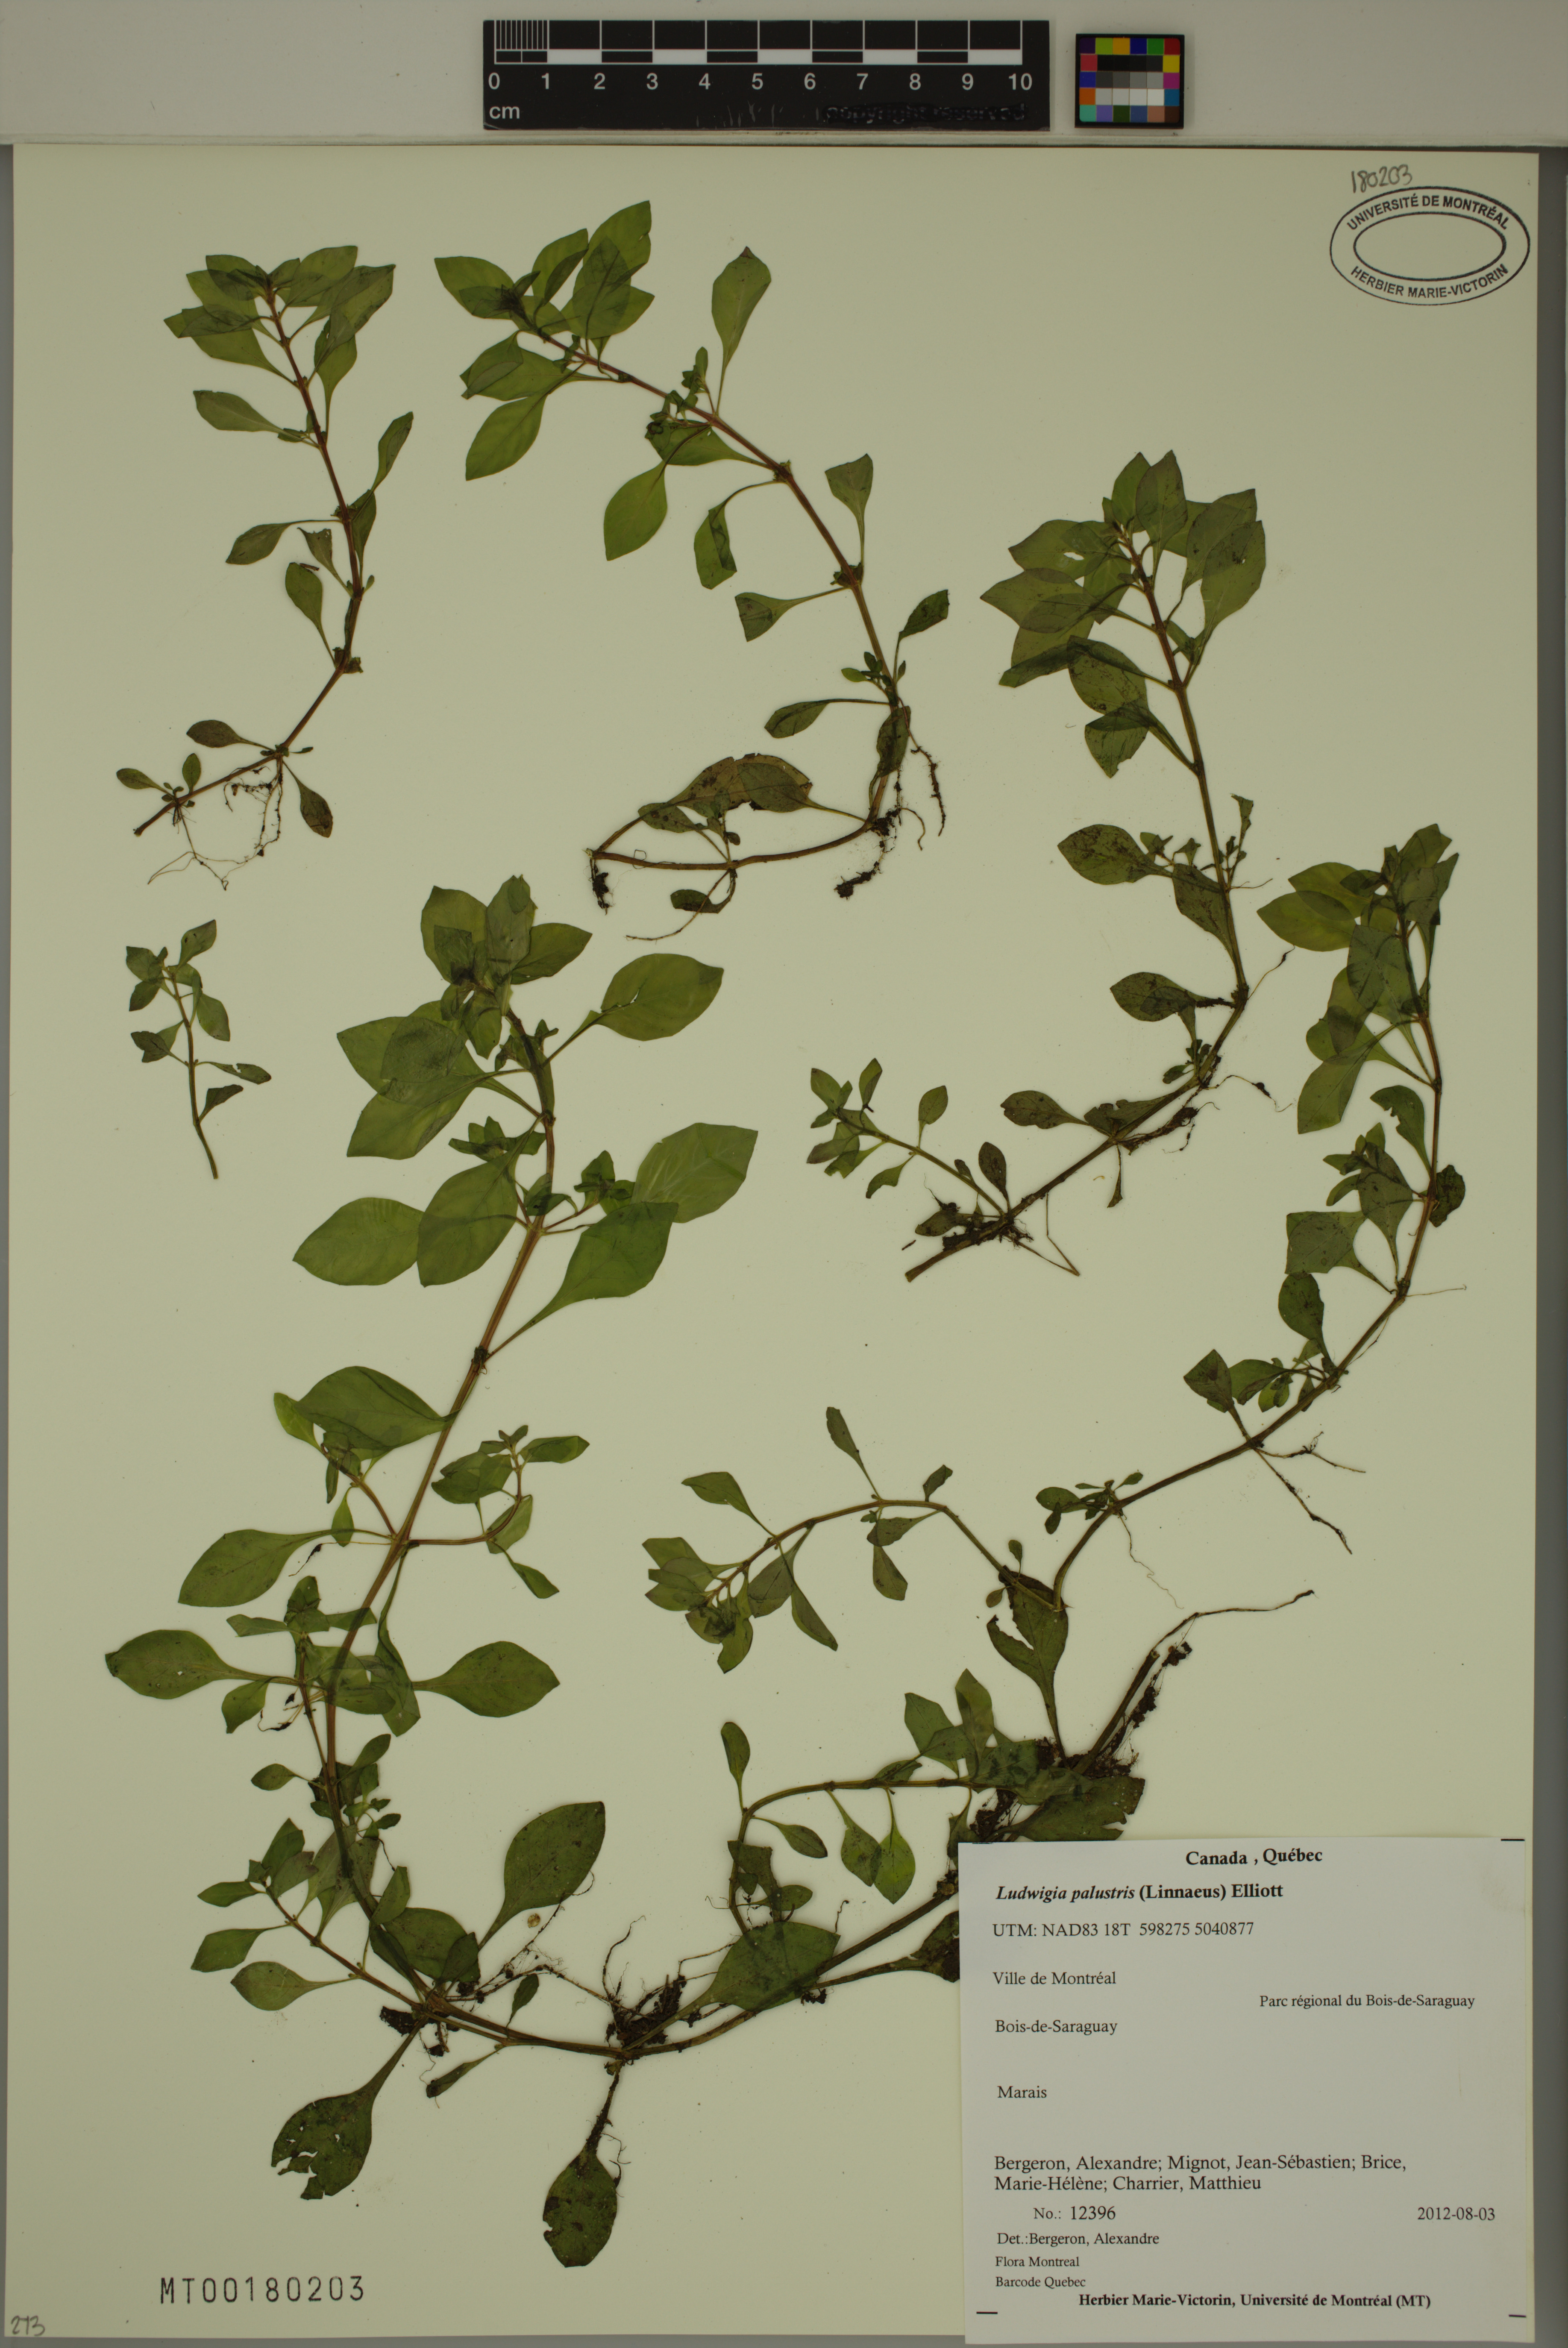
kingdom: Plantae
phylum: Tracheophyta
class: Magnoliopsida
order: Myrtales
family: Onagraceae
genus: Ludwigia
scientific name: Ludwigia palustris
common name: Hampshire-purslane
